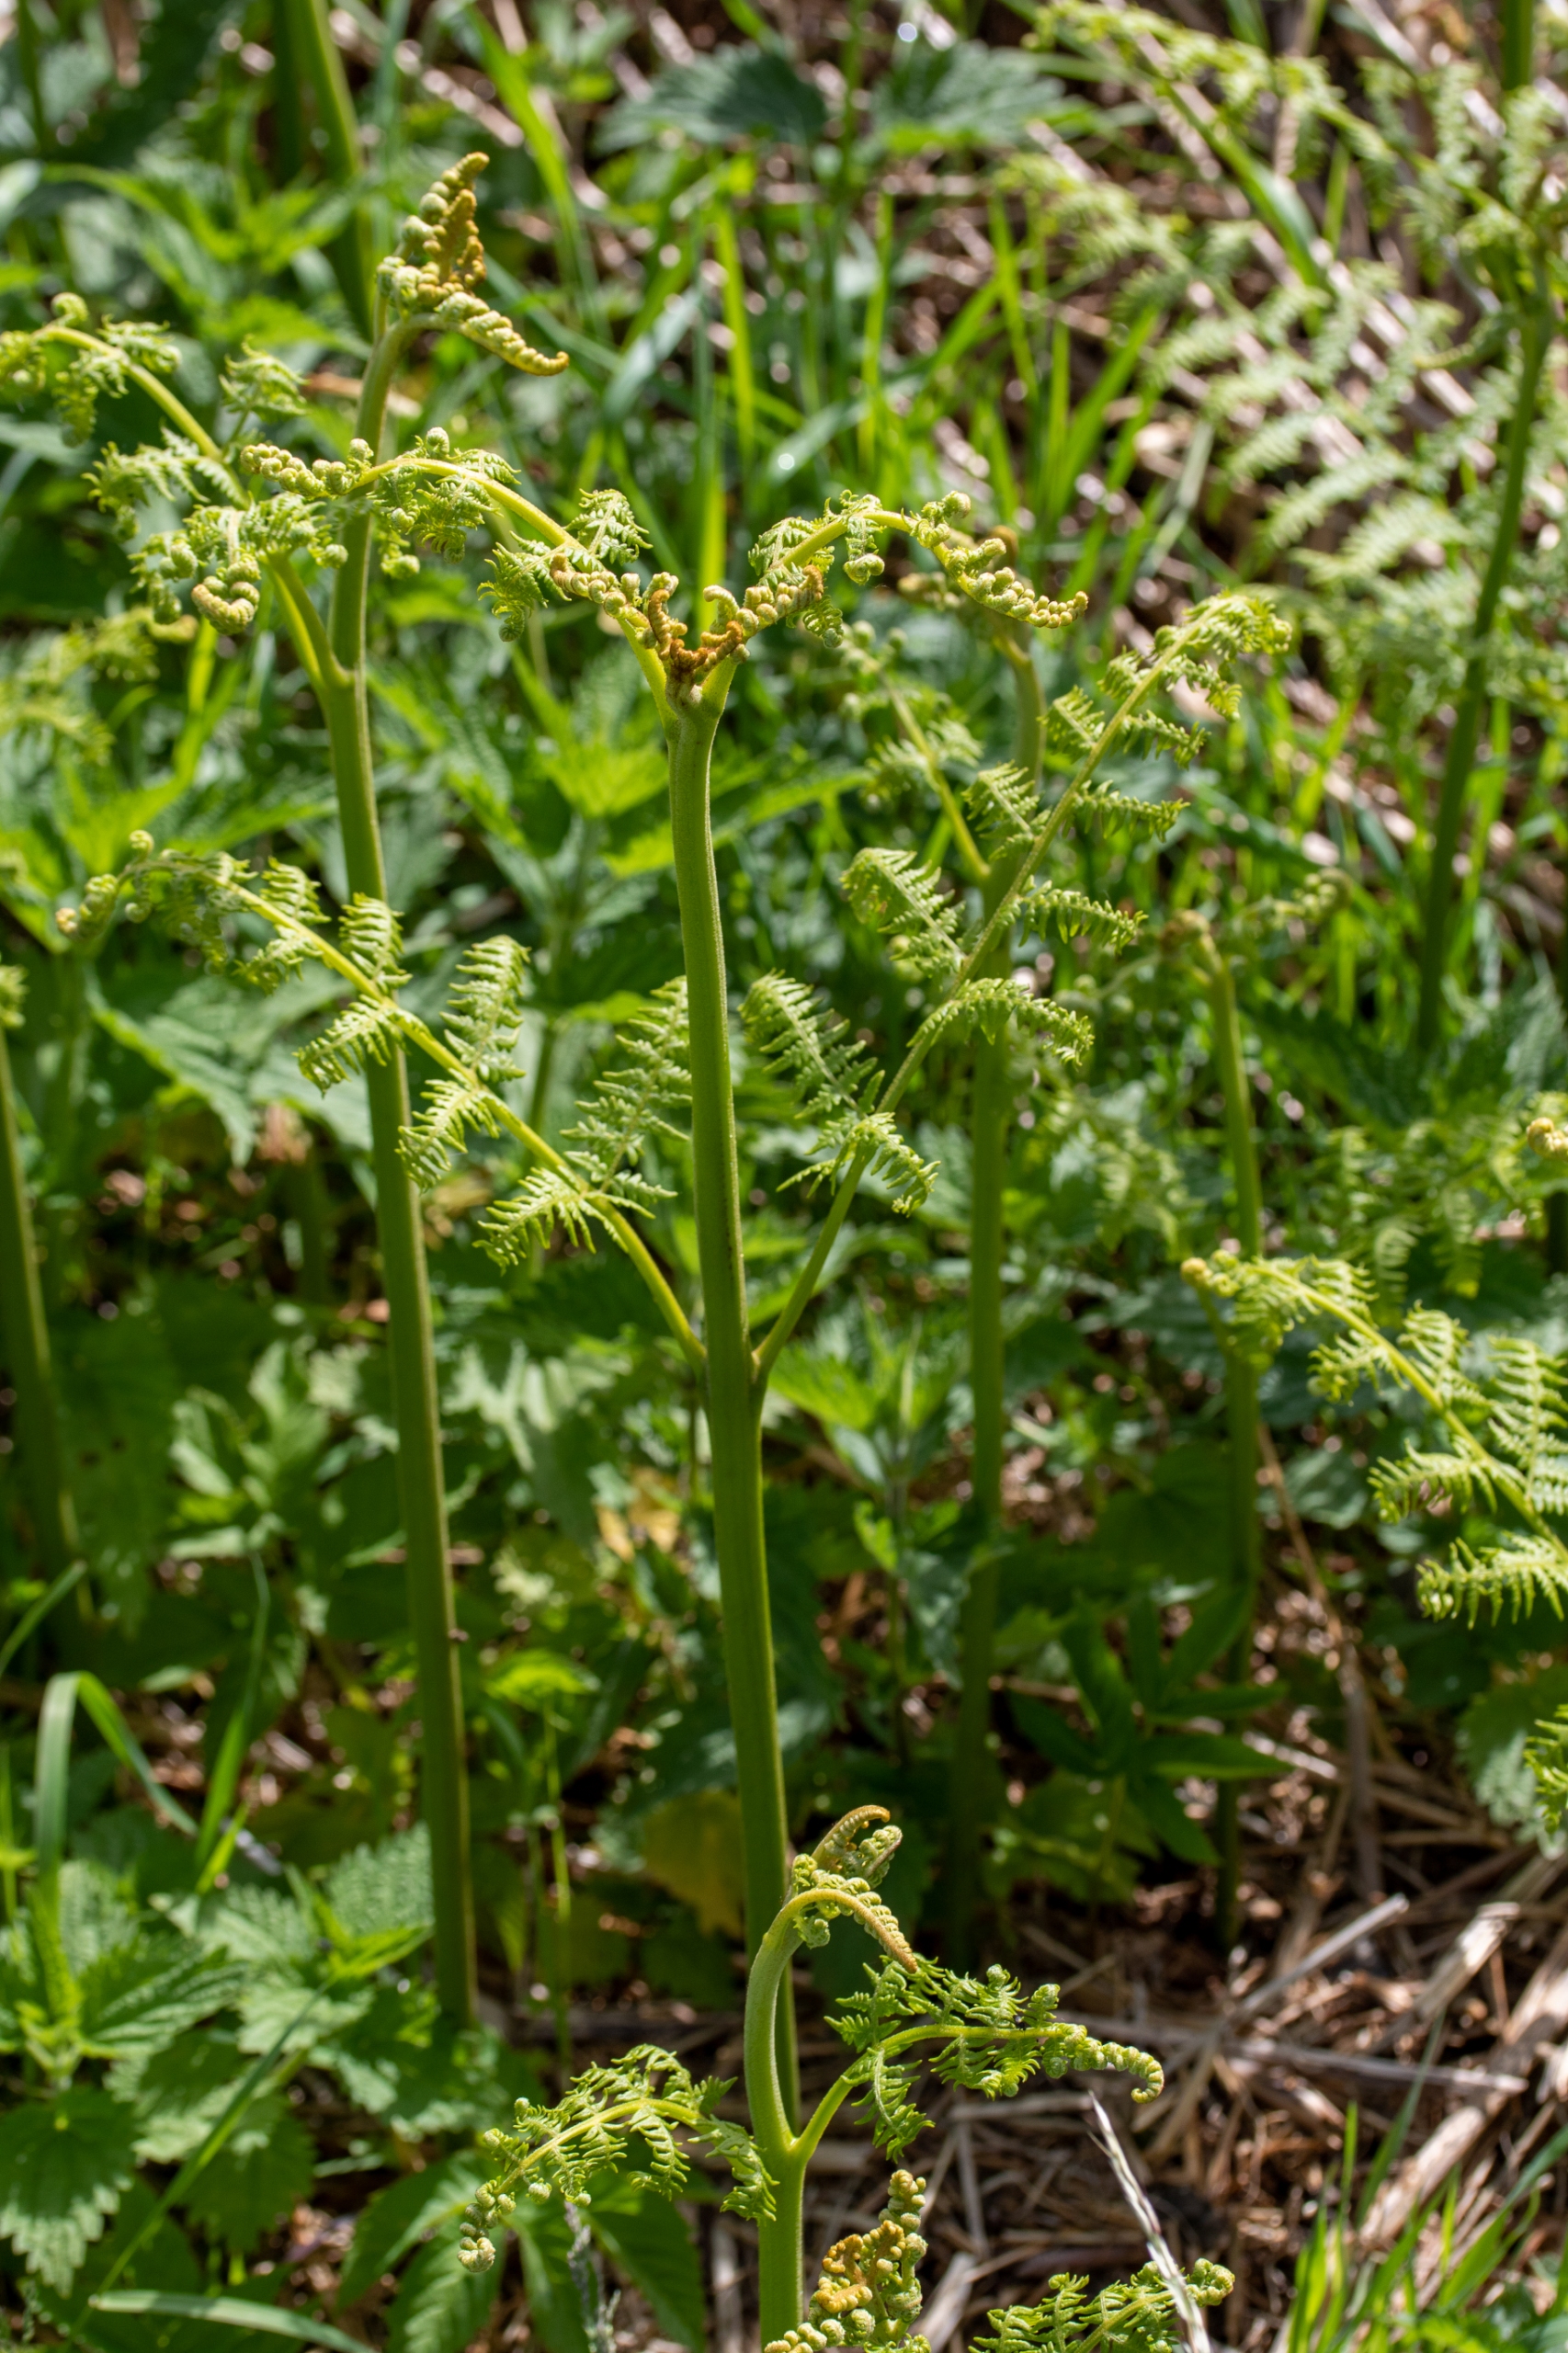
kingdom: Plantae
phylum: Tracheophyta
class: Polypodiopsida
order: Polypodiales
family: Dennstaedtiaceae
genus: Pteridium
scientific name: Pteridium aquilinum
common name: Ørnebregne
